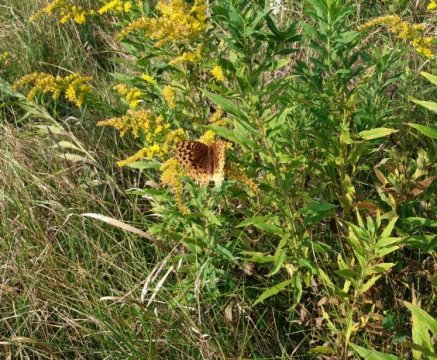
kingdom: Animalia
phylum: Arthropoda
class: Insecta
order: Lepidoptera
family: Nymphalidae
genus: Speyeria
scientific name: Speyeria cybele
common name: Great Spangled Fritillary
